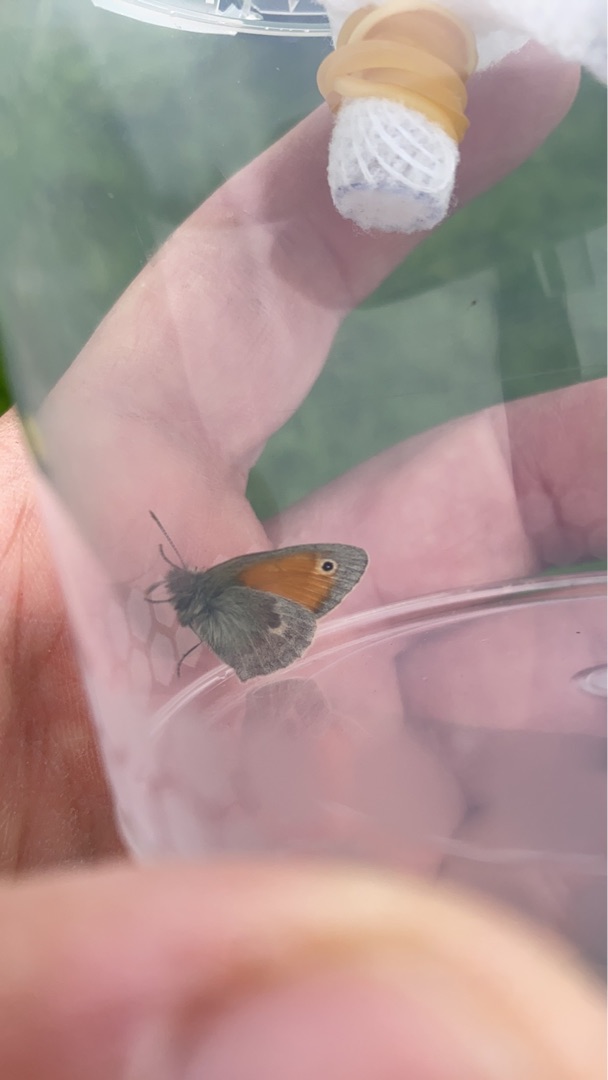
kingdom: Animalia
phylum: Arthropoda
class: Insecta
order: Lepidoptera
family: Nymphalidae
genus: Coenonympha
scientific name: Coenonympha pamphilus
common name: Okkergul randøje
